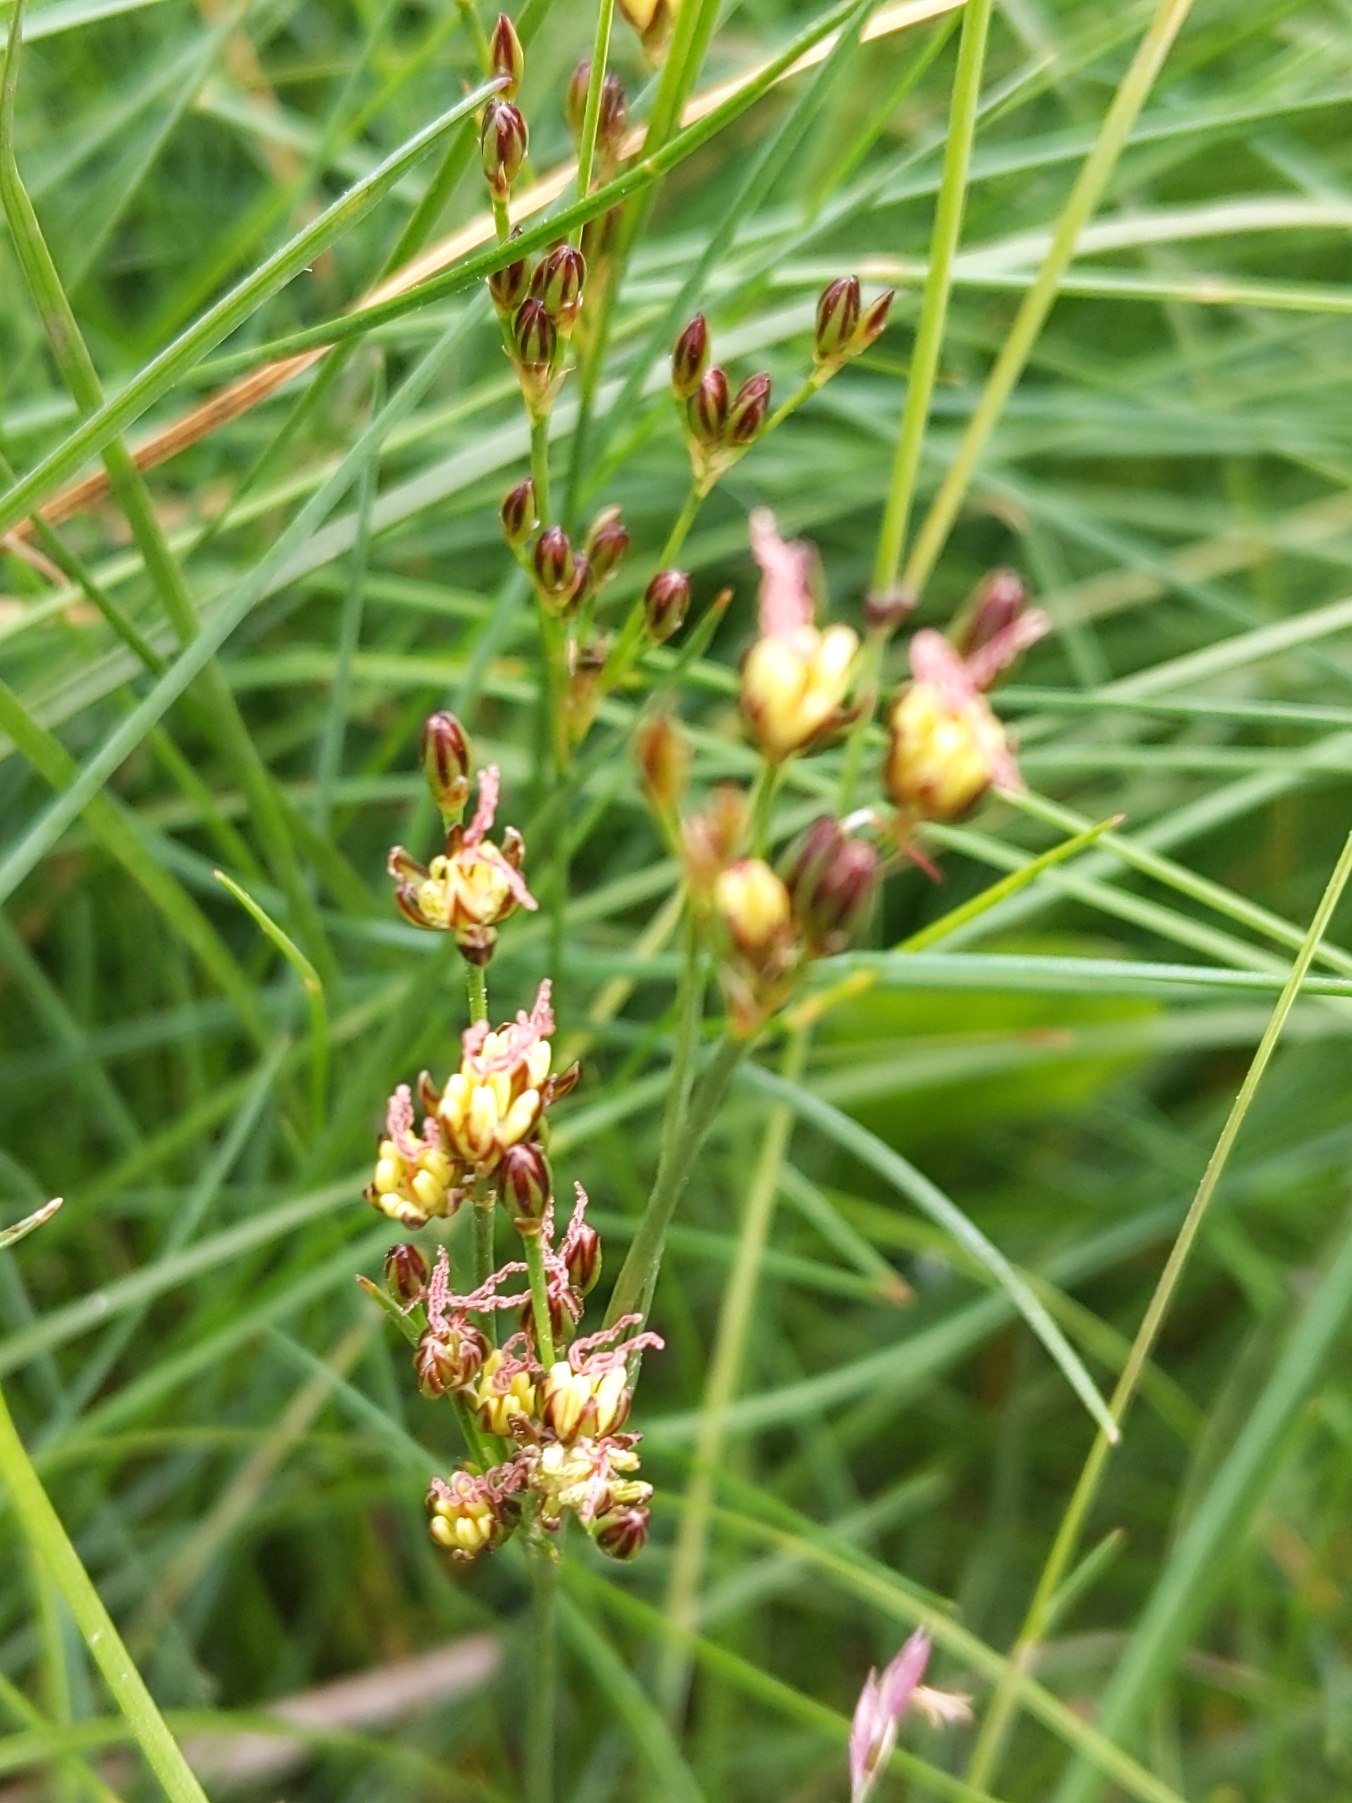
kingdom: Plantae
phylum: Tracheophyta
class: Liliopsida
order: Poales
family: Juncaceae
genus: Juncus
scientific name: Juncus gerardi
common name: Harril
